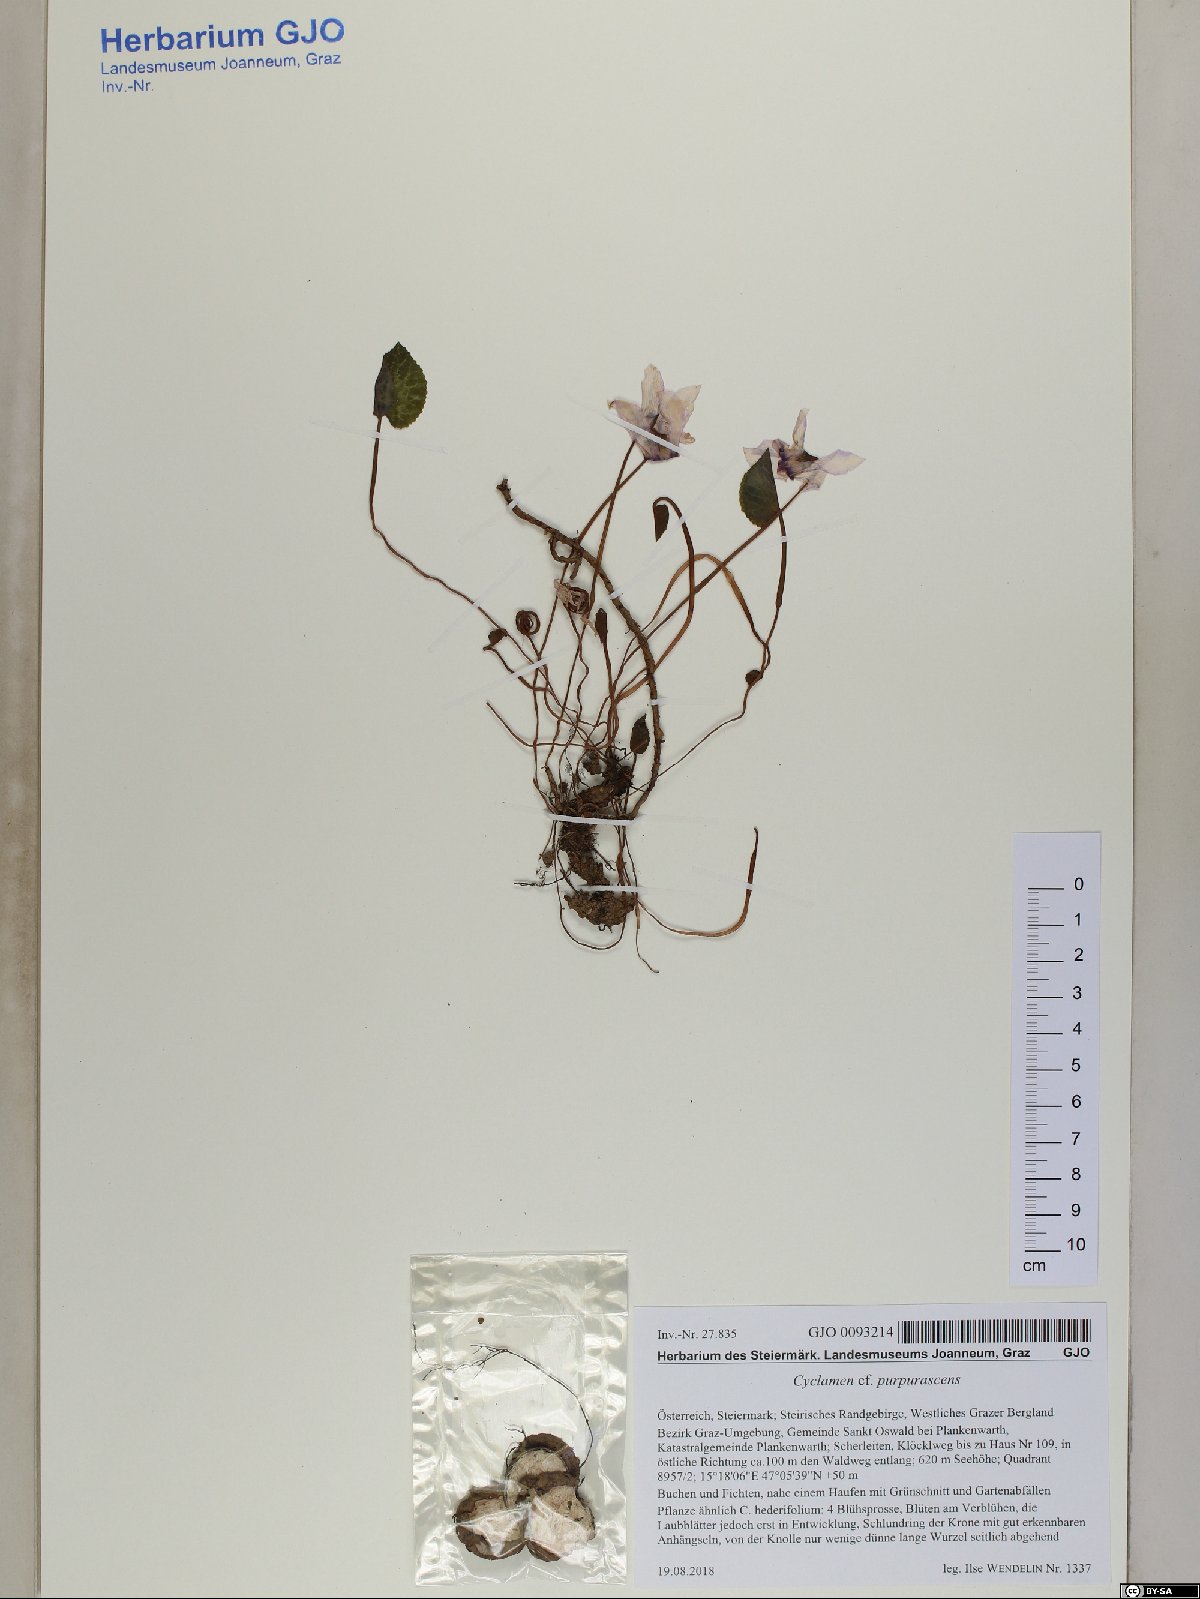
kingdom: Plantae
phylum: Tracheophyta
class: Magnoliopsida
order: Ericales
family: Primulaceae
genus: Cyclamen
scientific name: Cyclamen purpurascens
